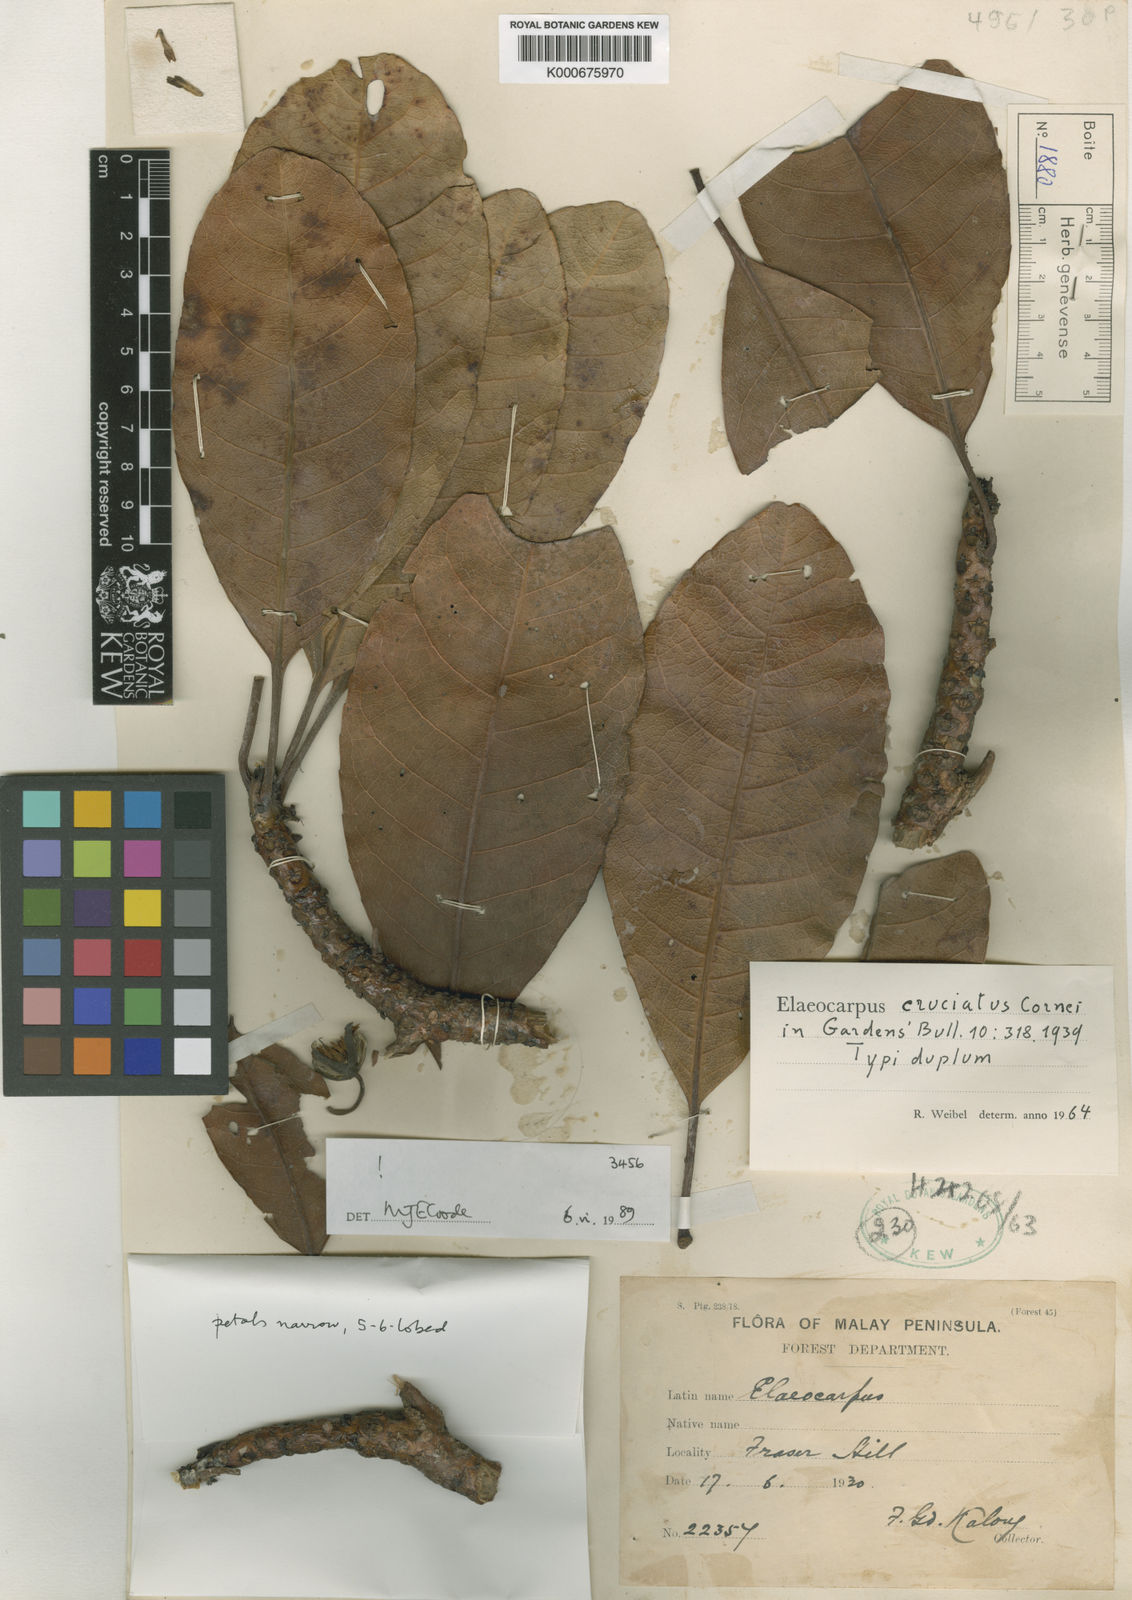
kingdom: Plantae
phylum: Tracheophyta
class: Magnoliopsida
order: Oxalidales
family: Elaeocarpaceae
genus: Elaeocarpus
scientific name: Elaeocarpus cruciatus
